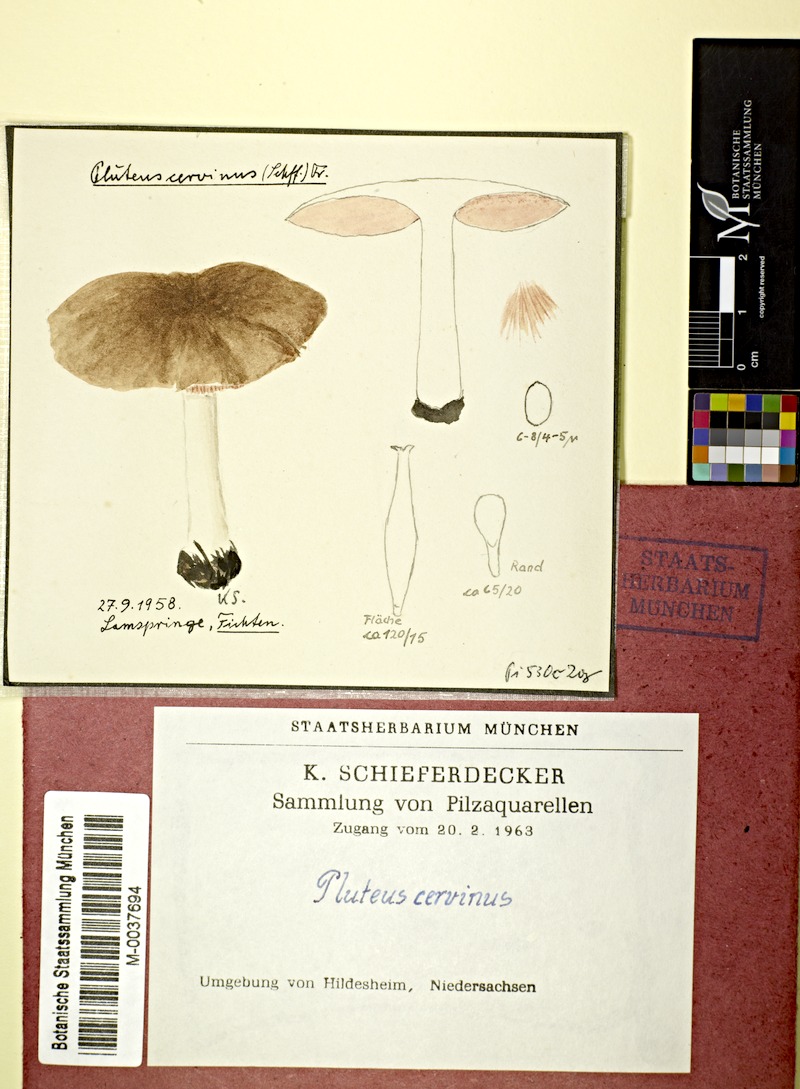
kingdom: Fungi
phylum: Basidiomycota
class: Agaricomycetes
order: Agaricales
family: Pluteaceae
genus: Pluteus
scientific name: Pluteus cervinus
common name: Deer shield
